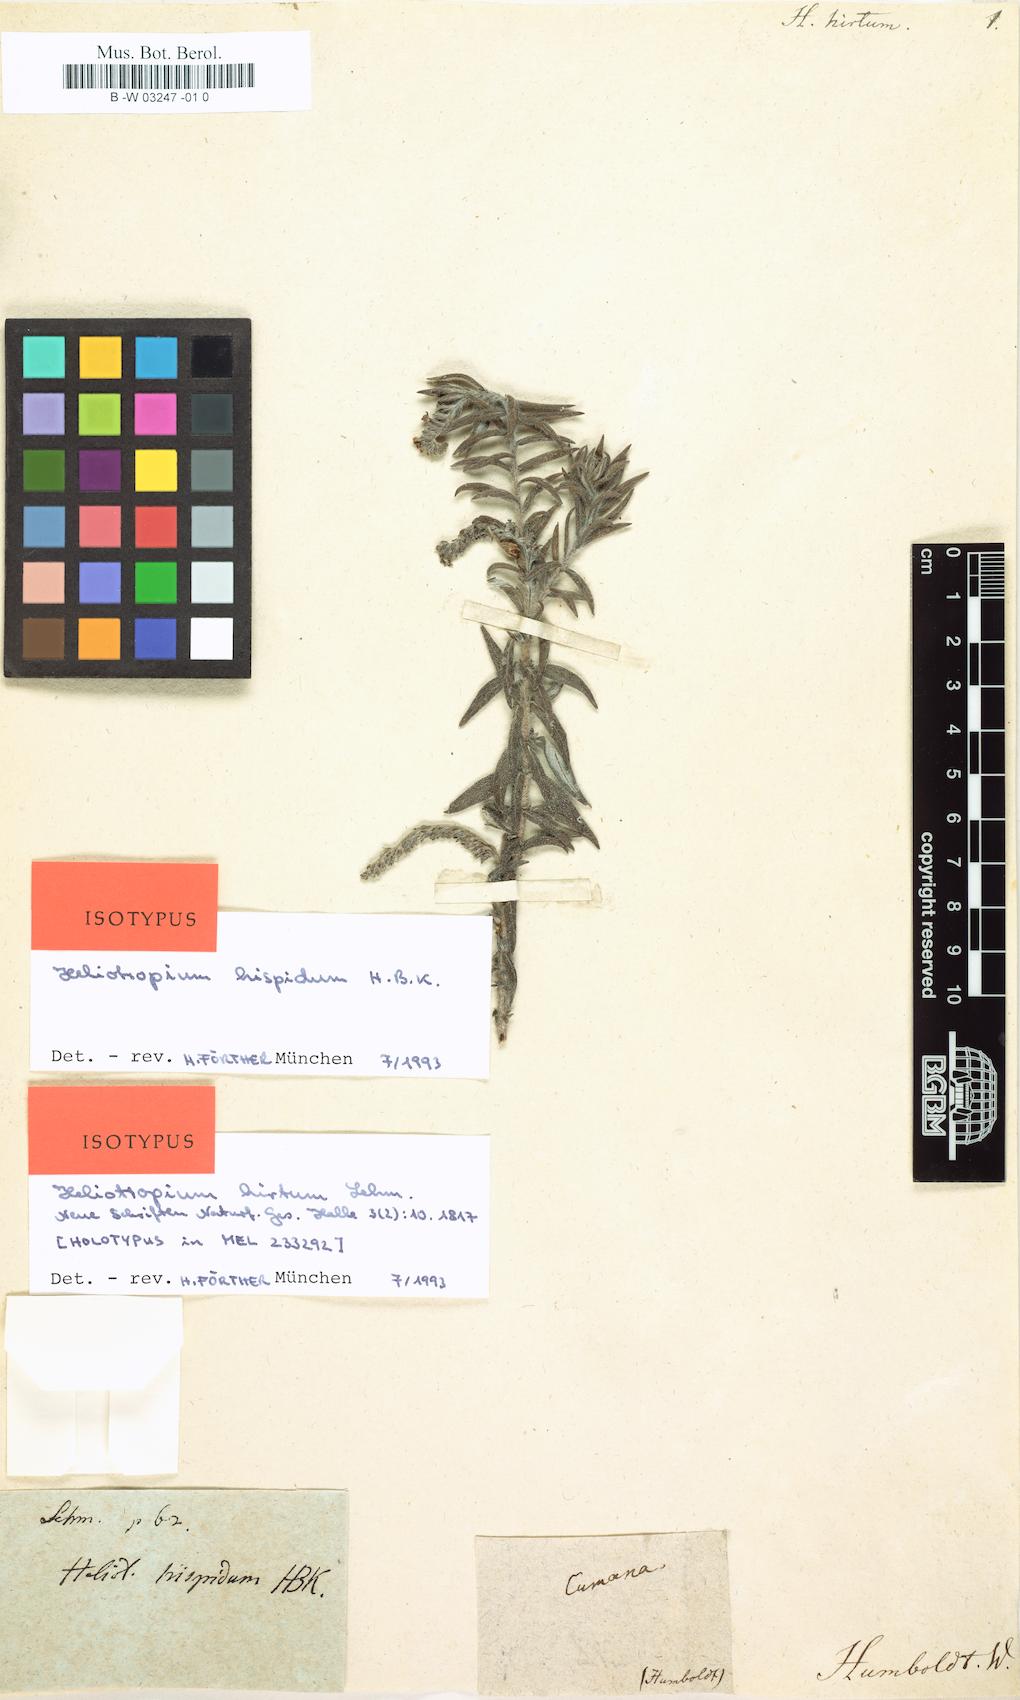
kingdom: Plantae
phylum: Tracheophyta
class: Magnoliopsida
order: Boraginales
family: Heliotropiaceae
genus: Euploca
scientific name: Euploca humilis
